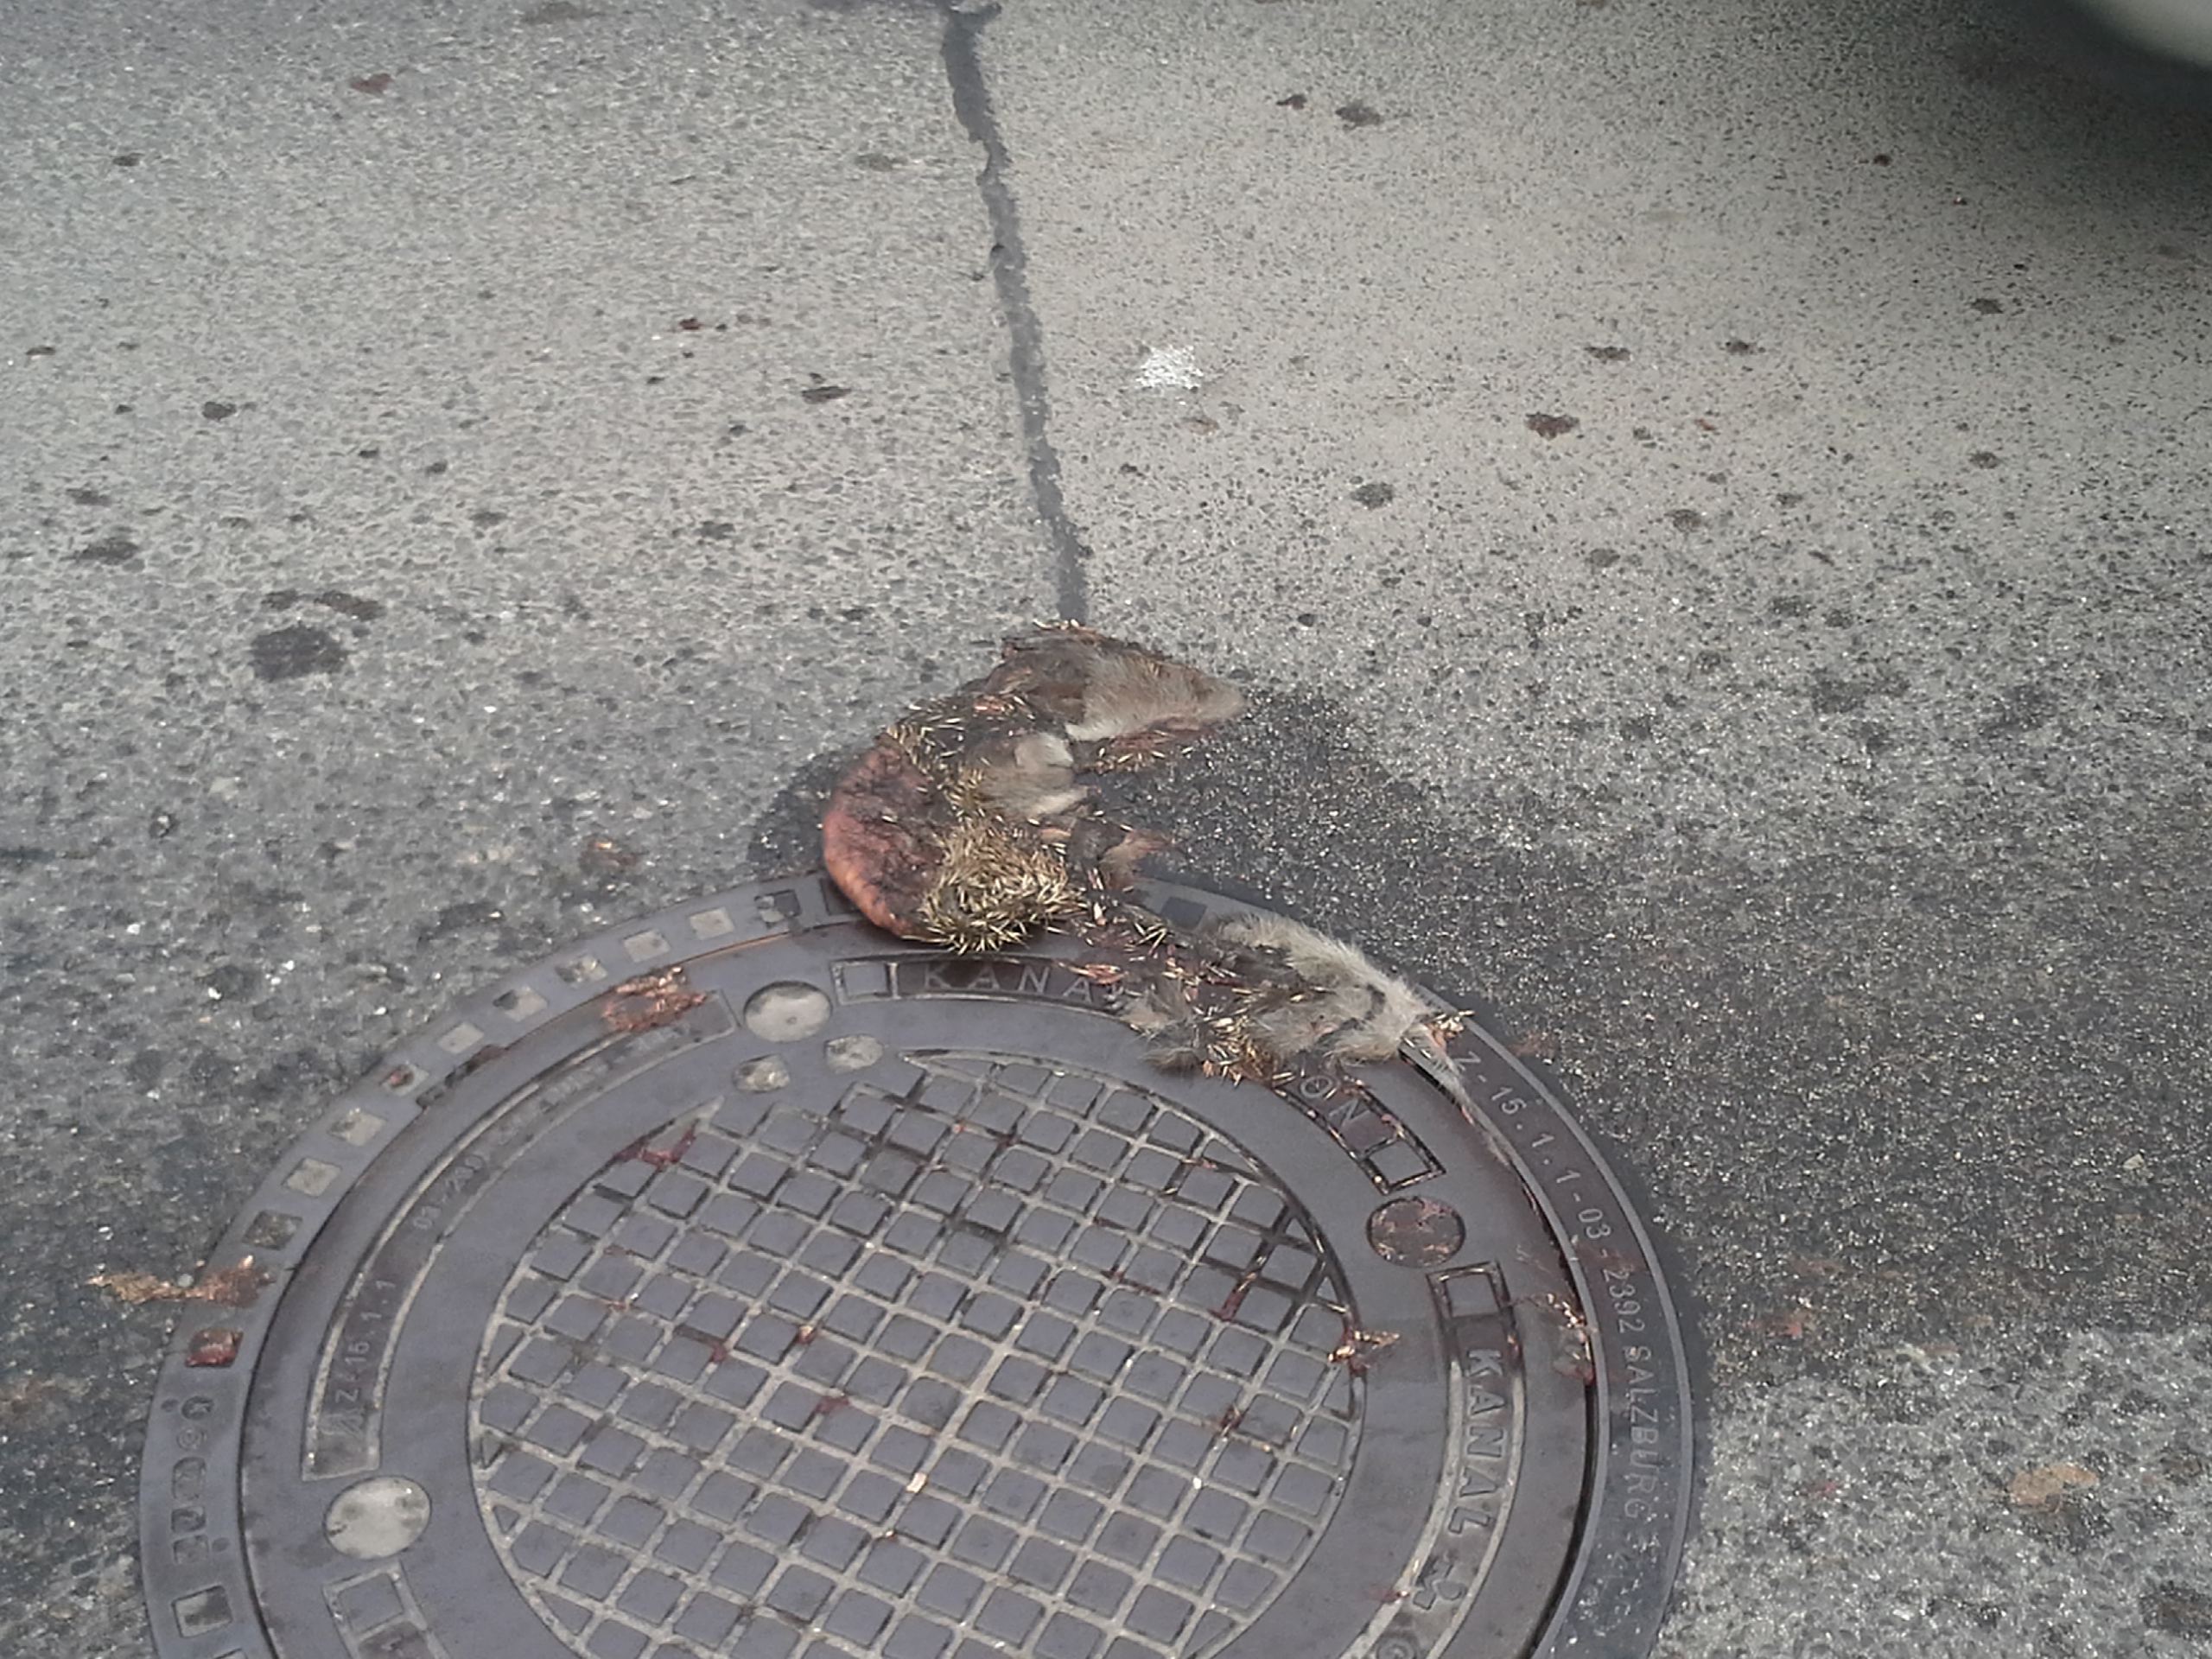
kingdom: Animalia
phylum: Chordata
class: Mammalia
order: Erinaceomorpha
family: Erinaceidae
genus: Erinaceus
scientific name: Erinaceus
